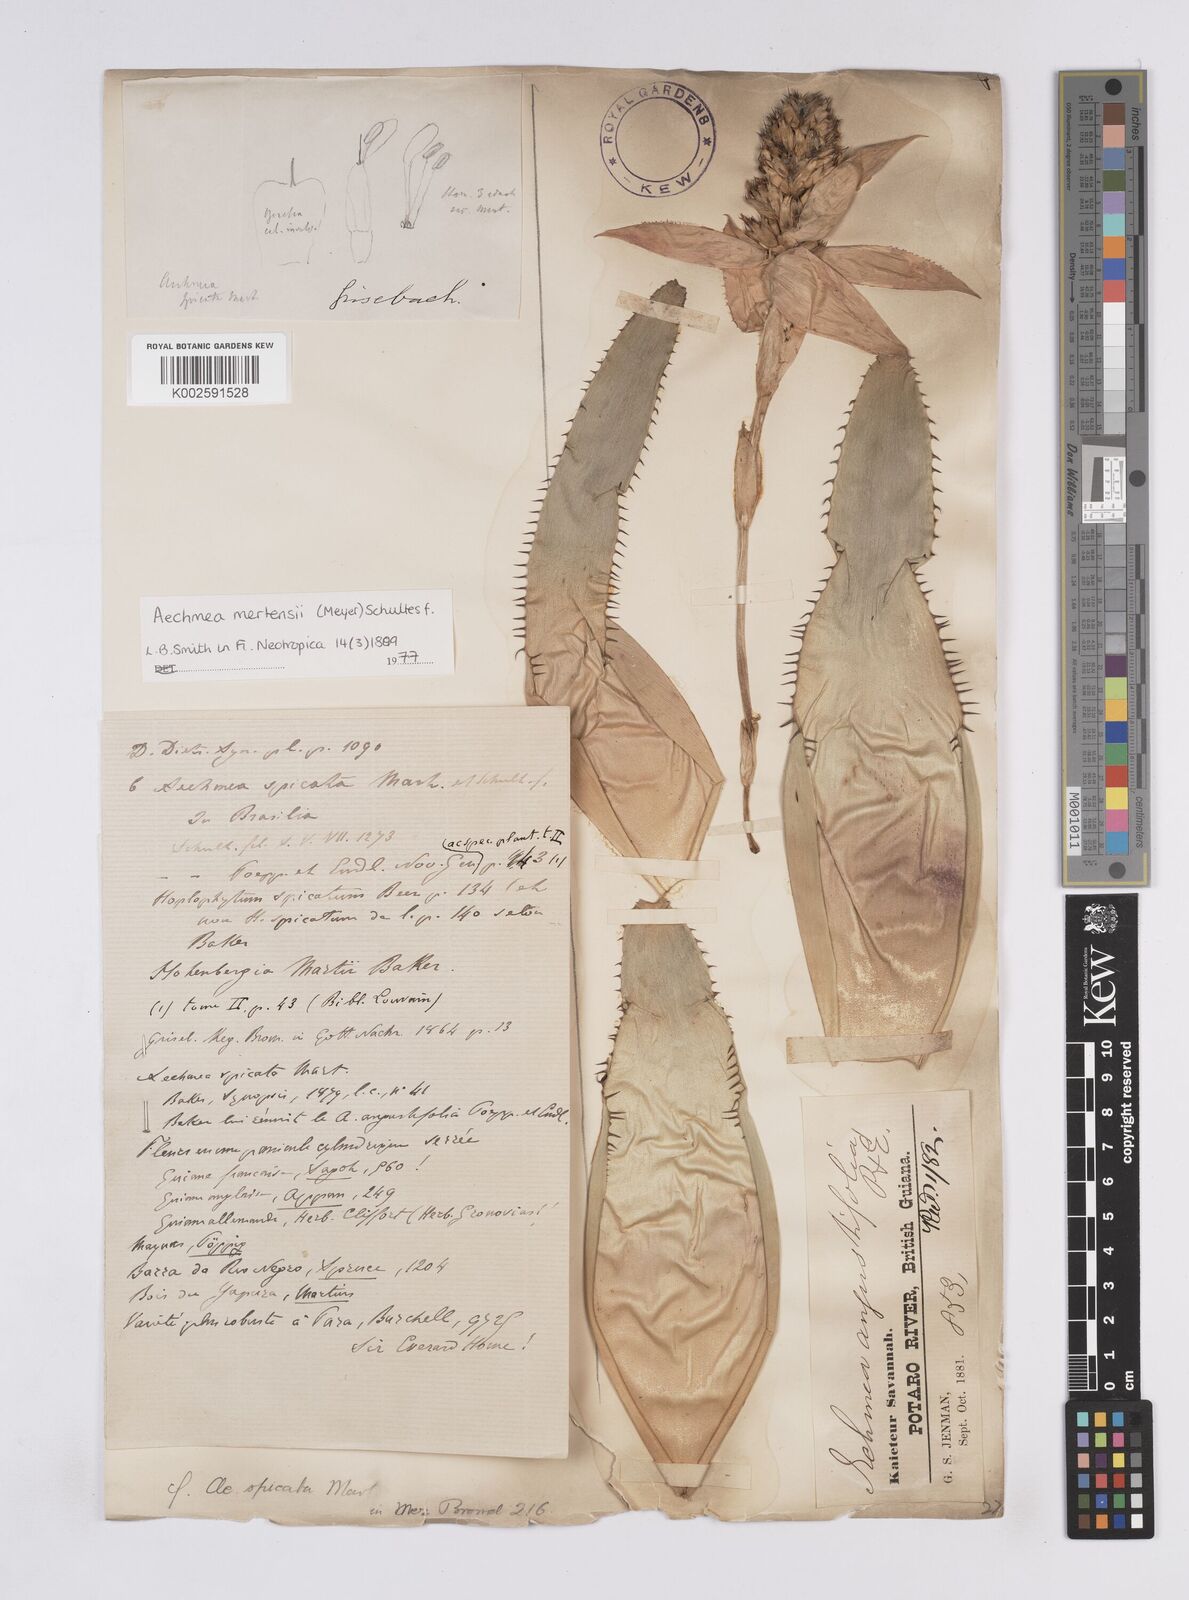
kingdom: Plantae
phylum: Tracheophyta
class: Liliopsida
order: Poales
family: Bromeliaceae
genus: Aechmea
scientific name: Aechmea mertensii
